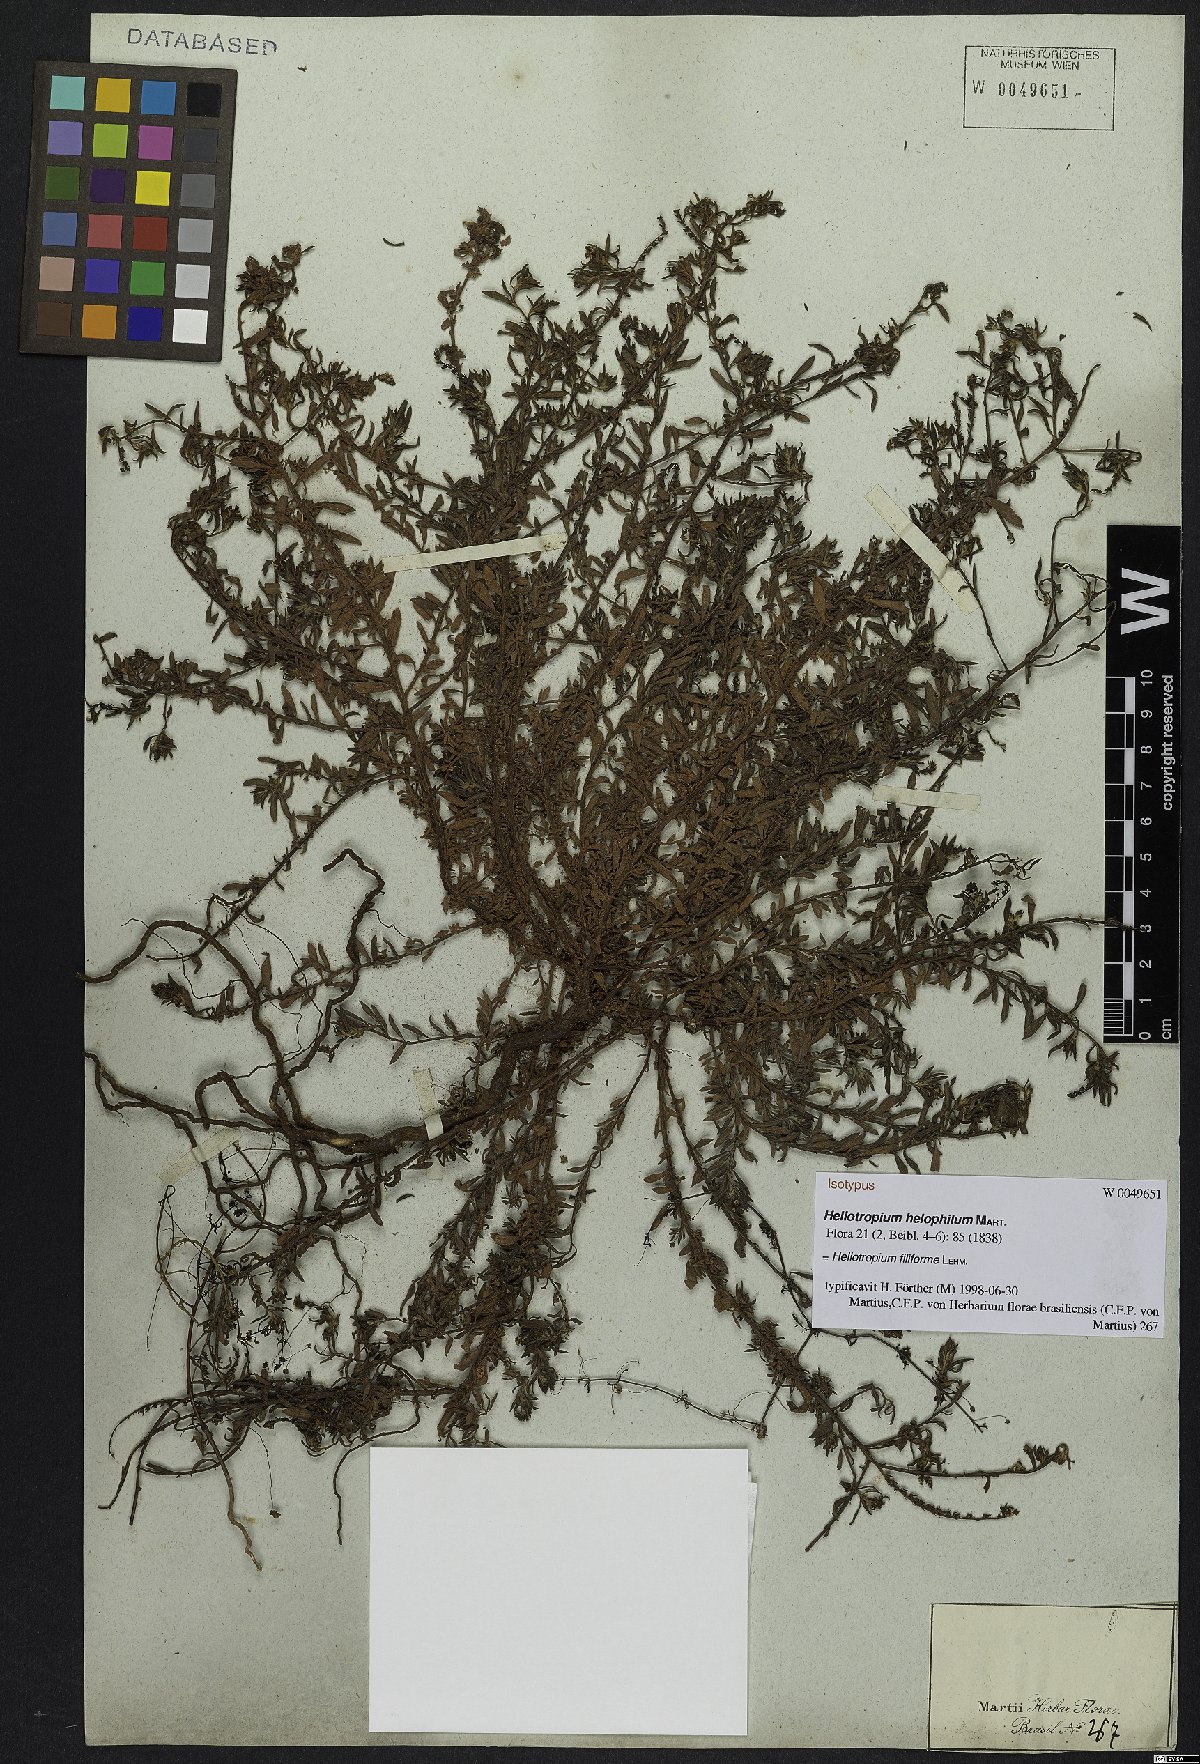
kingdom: Plantae
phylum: Tracheophyta
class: Magnoliopsida
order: Boraginales
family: Heliotropiaceae
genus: Euploca
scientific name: Euploca filiformis
